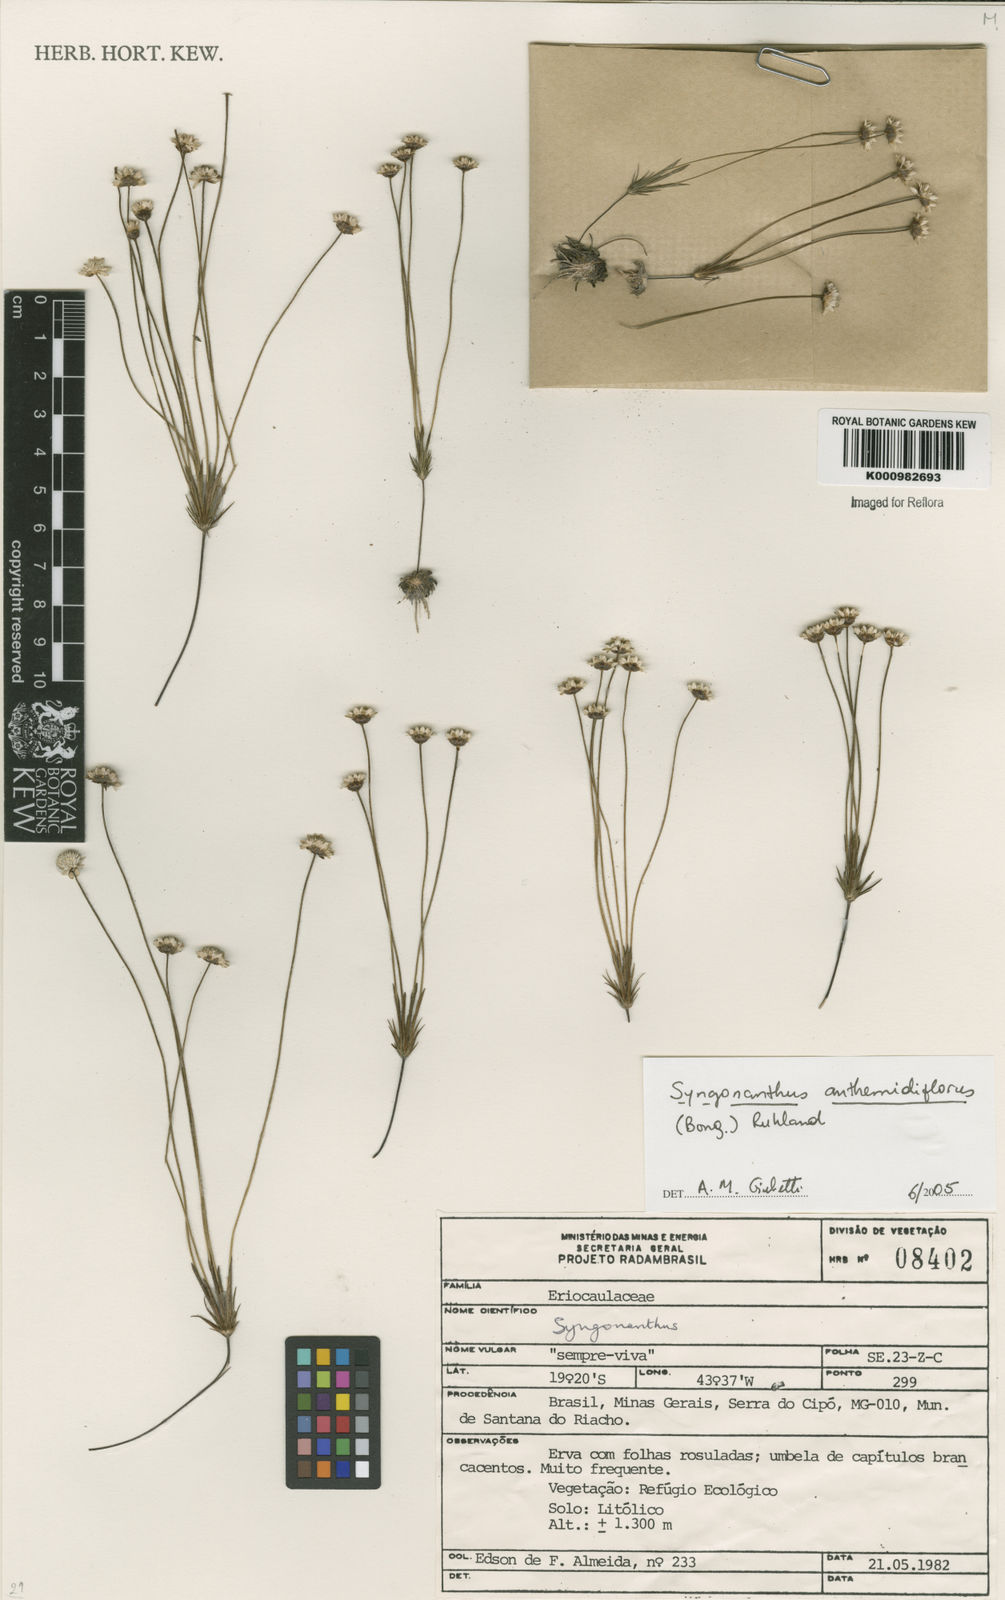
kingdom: Plantae
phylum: Tracheophyta
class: Liliopsida
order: Poales
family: Eriocaulaceae
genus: Syngonanthus
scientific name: Syngonanthus anthemidiflorus
